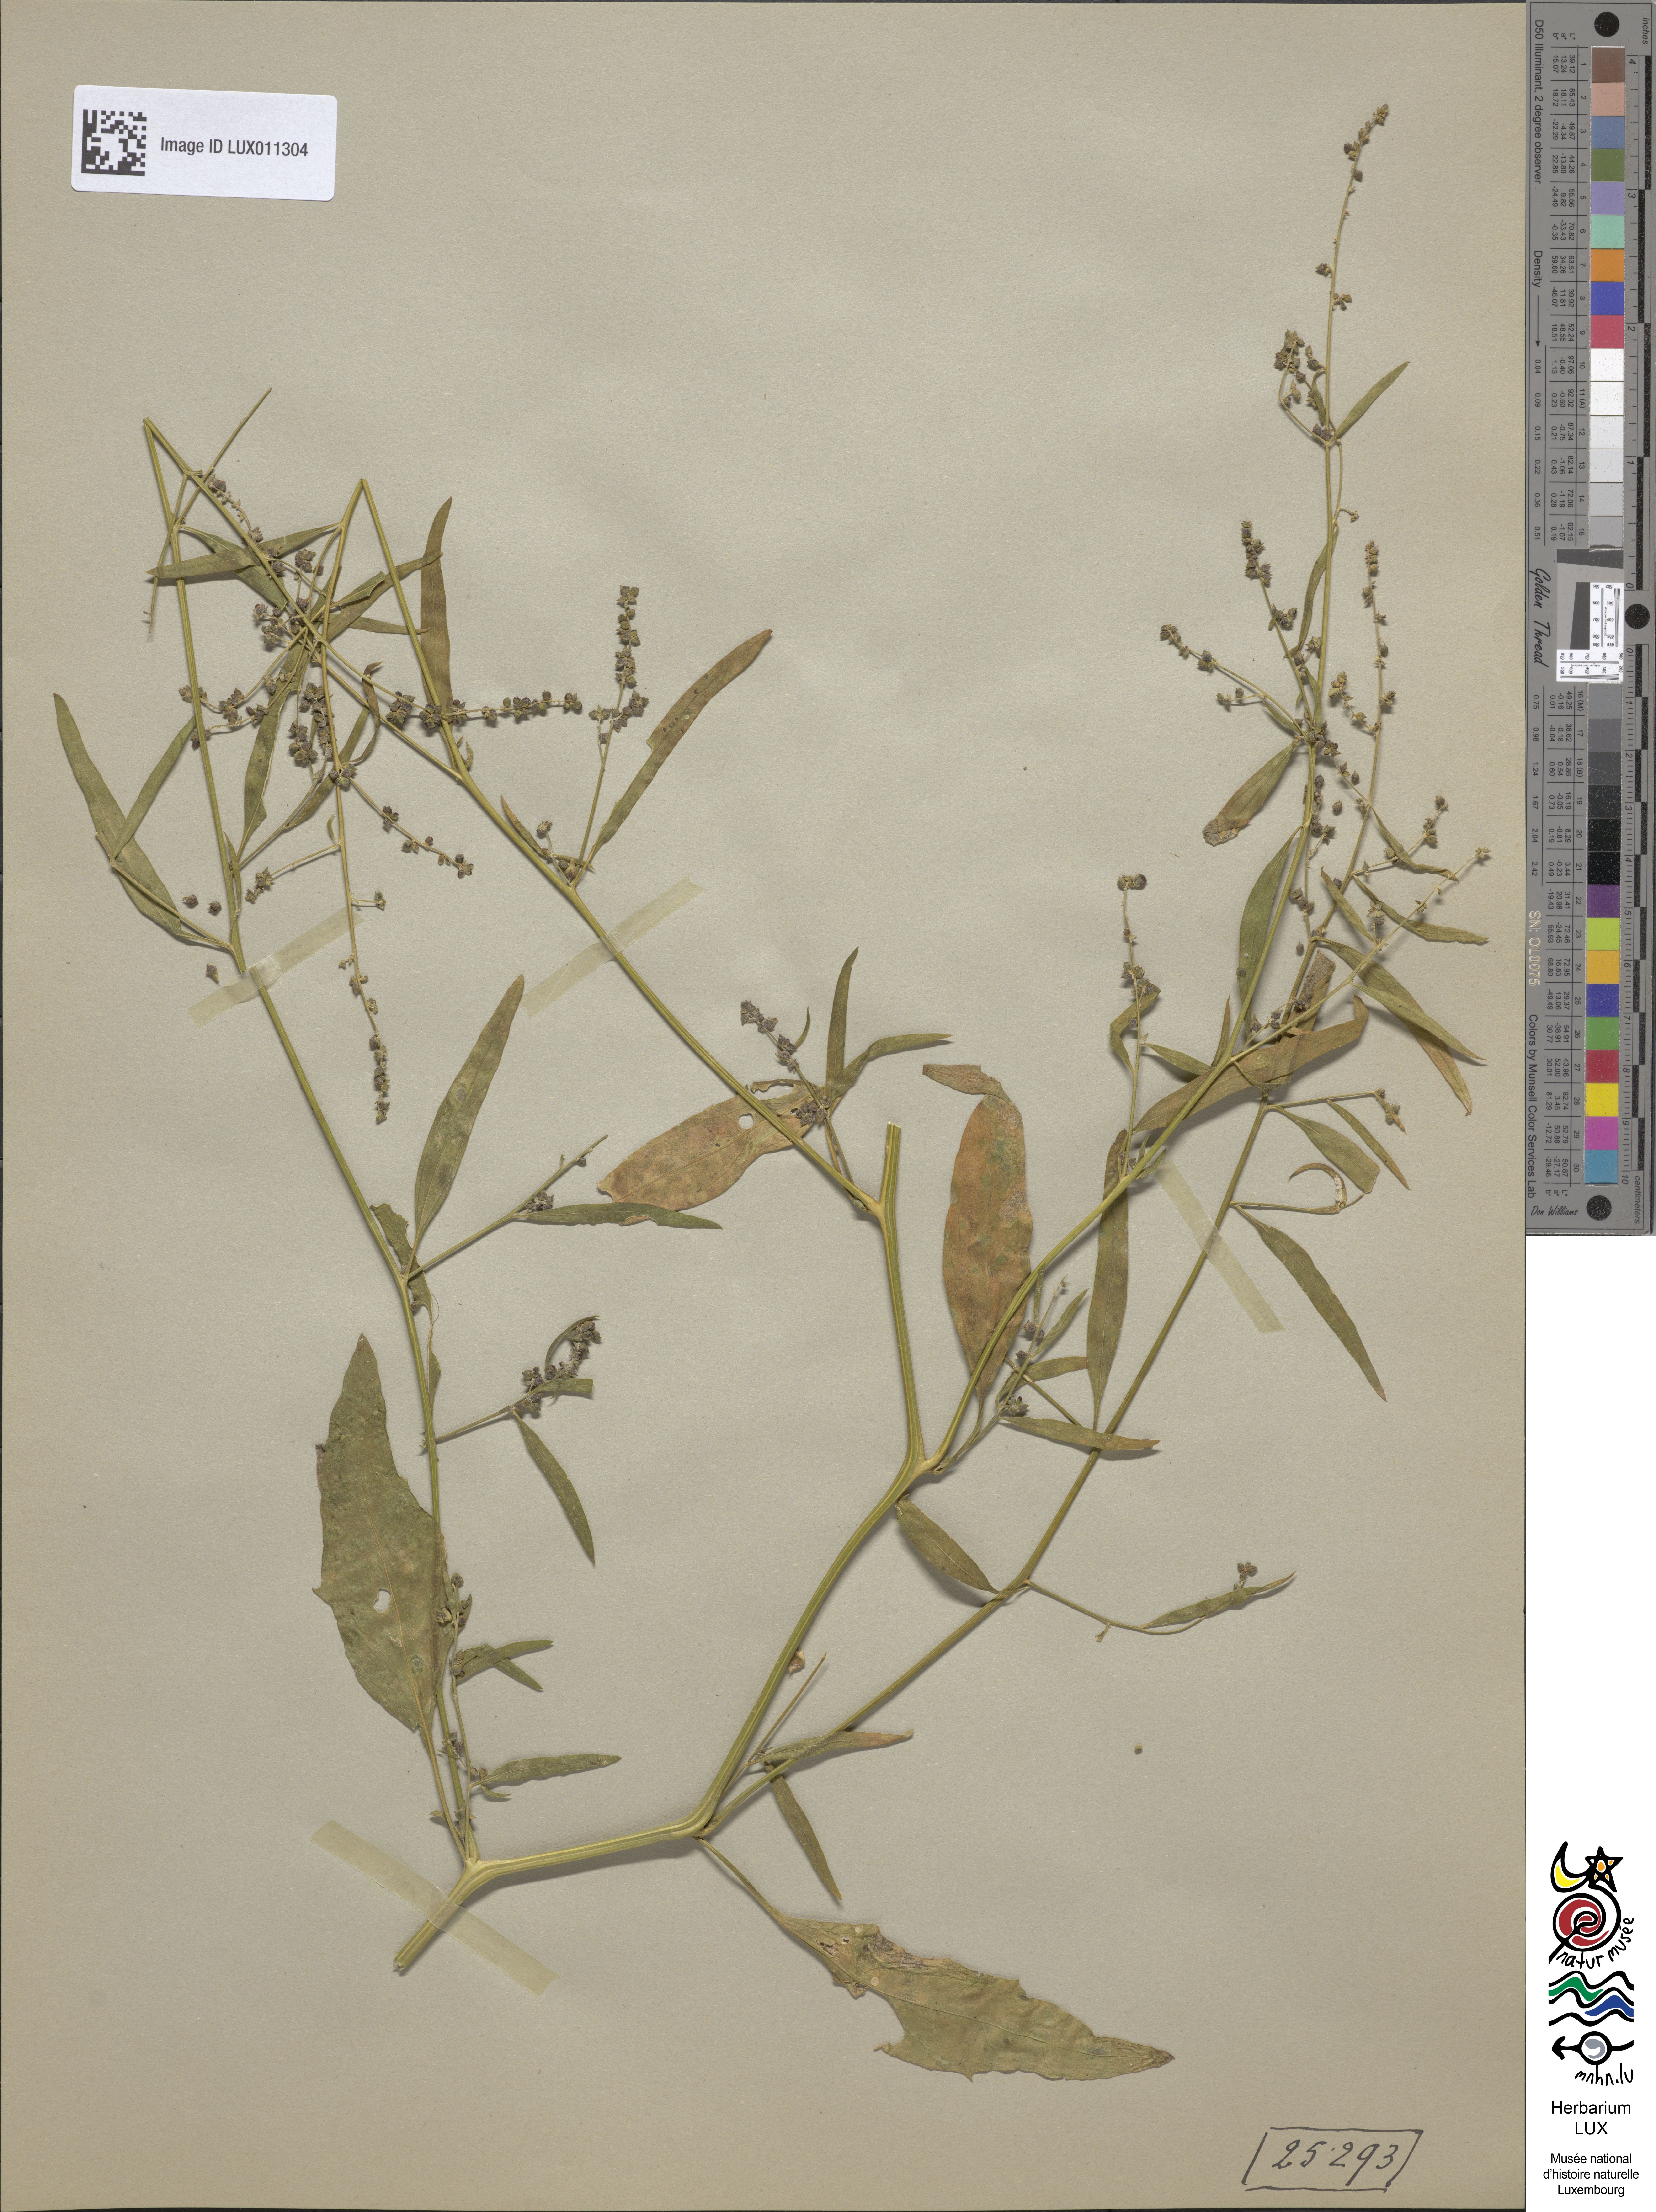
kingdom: Plantae
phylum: Tracheophyta
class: Magnoliopsida
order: Caryophyllales
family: Amaranthaceae
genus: Atriplex
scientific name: Atriplex patula
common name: Common orache
